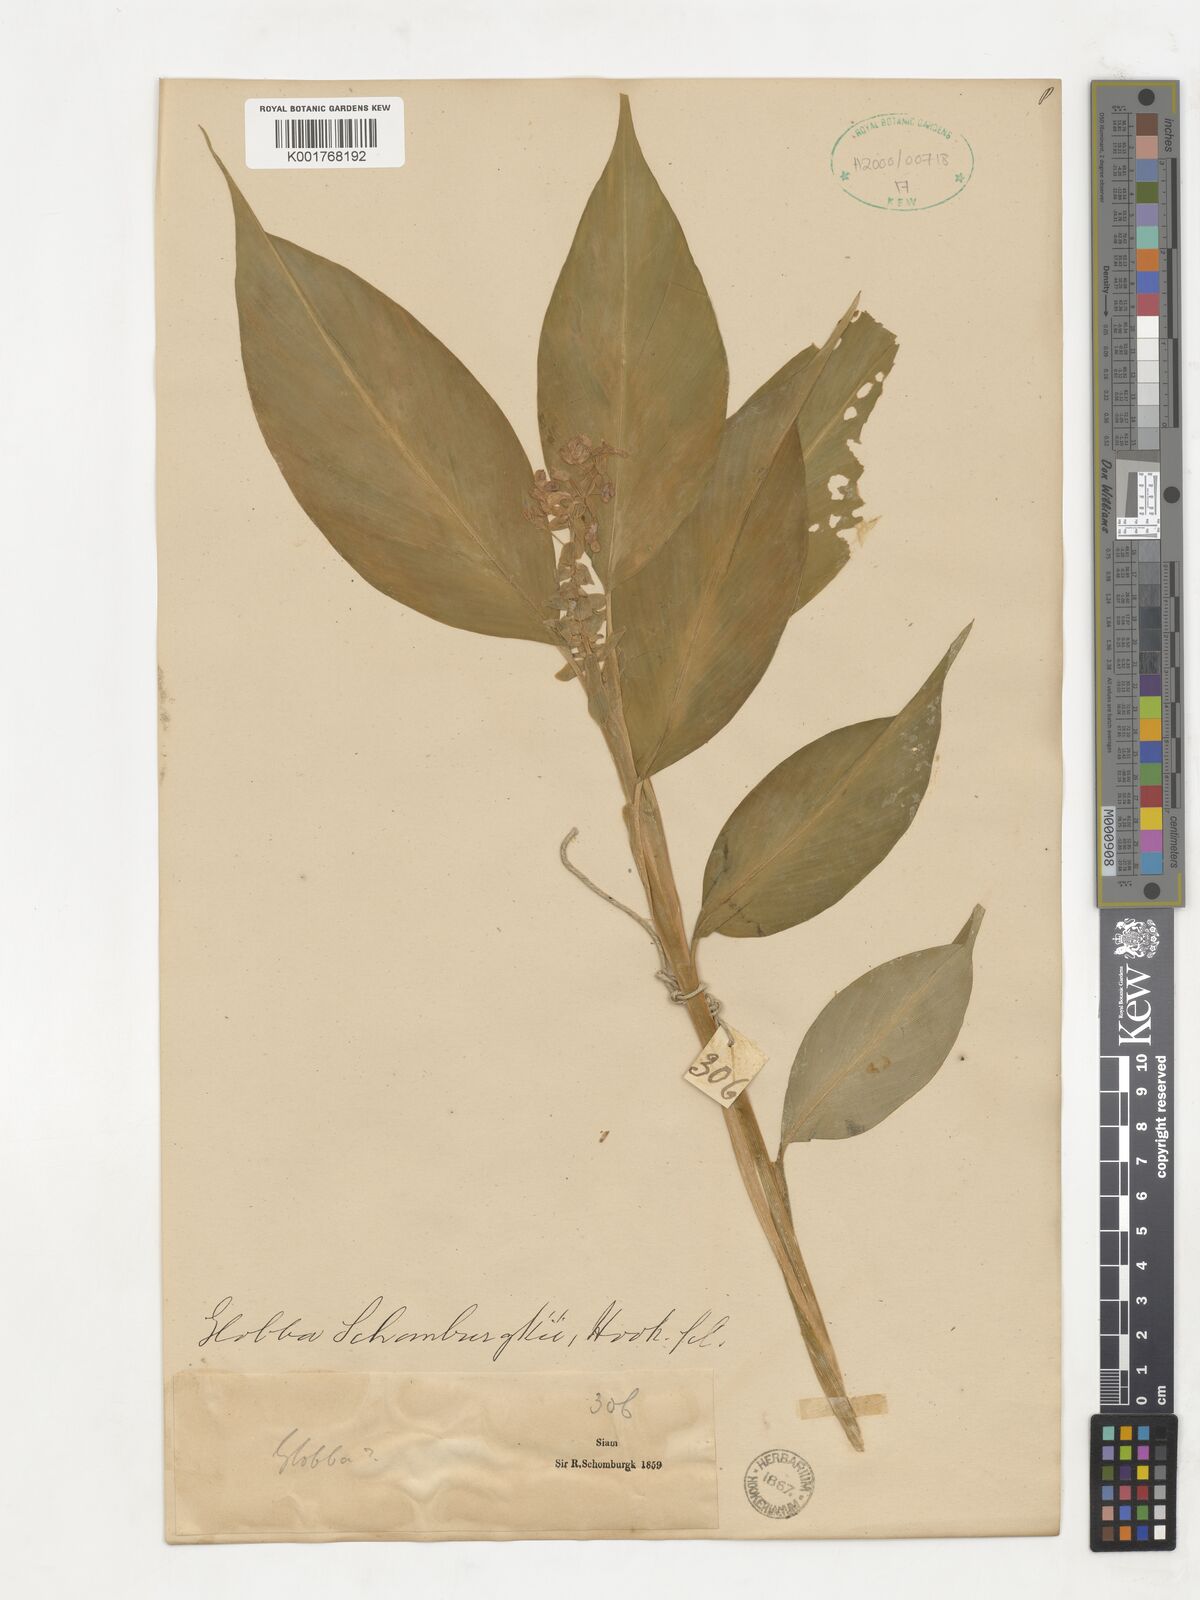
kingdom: Plantae
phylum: Tracheophyta
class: Liliopsida
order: Zingiberales
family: Zingiberaceae
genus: Globba
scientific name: Globba schomburgkii
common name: Dancing girl ginger
